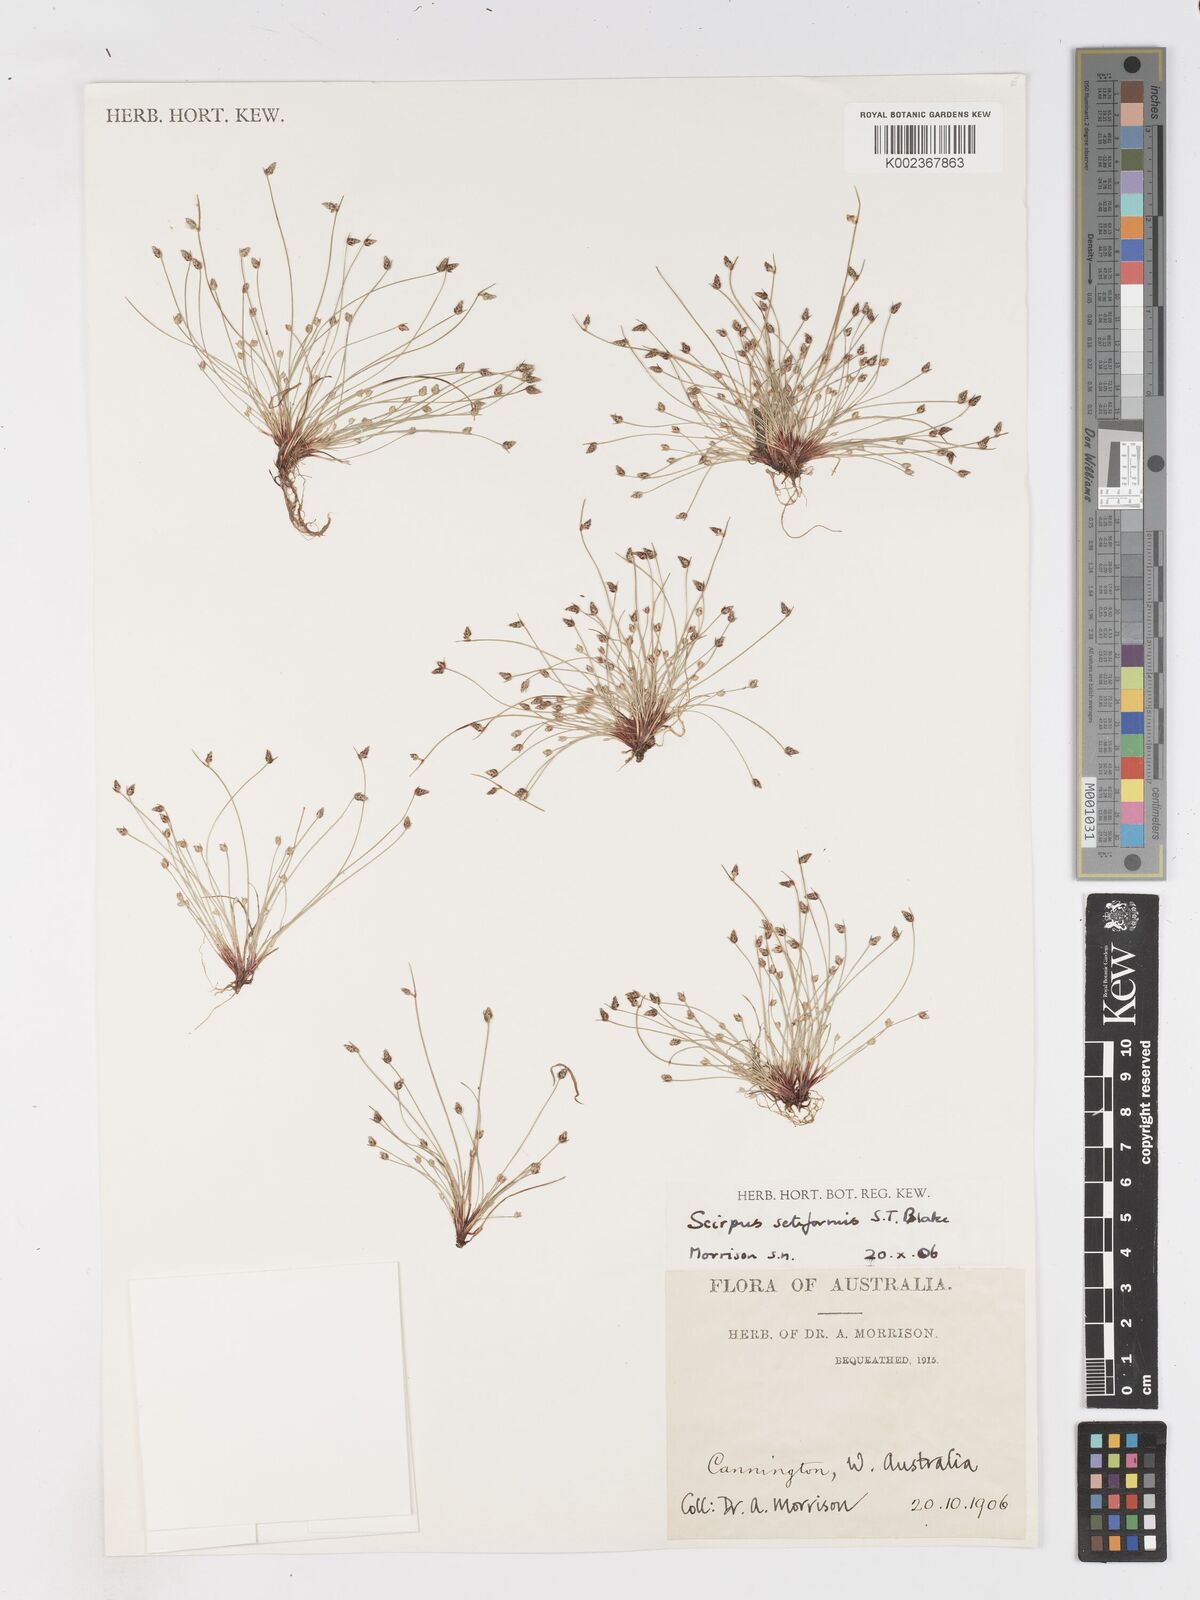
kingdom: Plantae
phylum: Tracheophyta
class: Liliopsida
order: Poales
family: Cyperaceae
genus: Isolepis
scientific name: Isolepis cernua
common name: Slender club-rush
